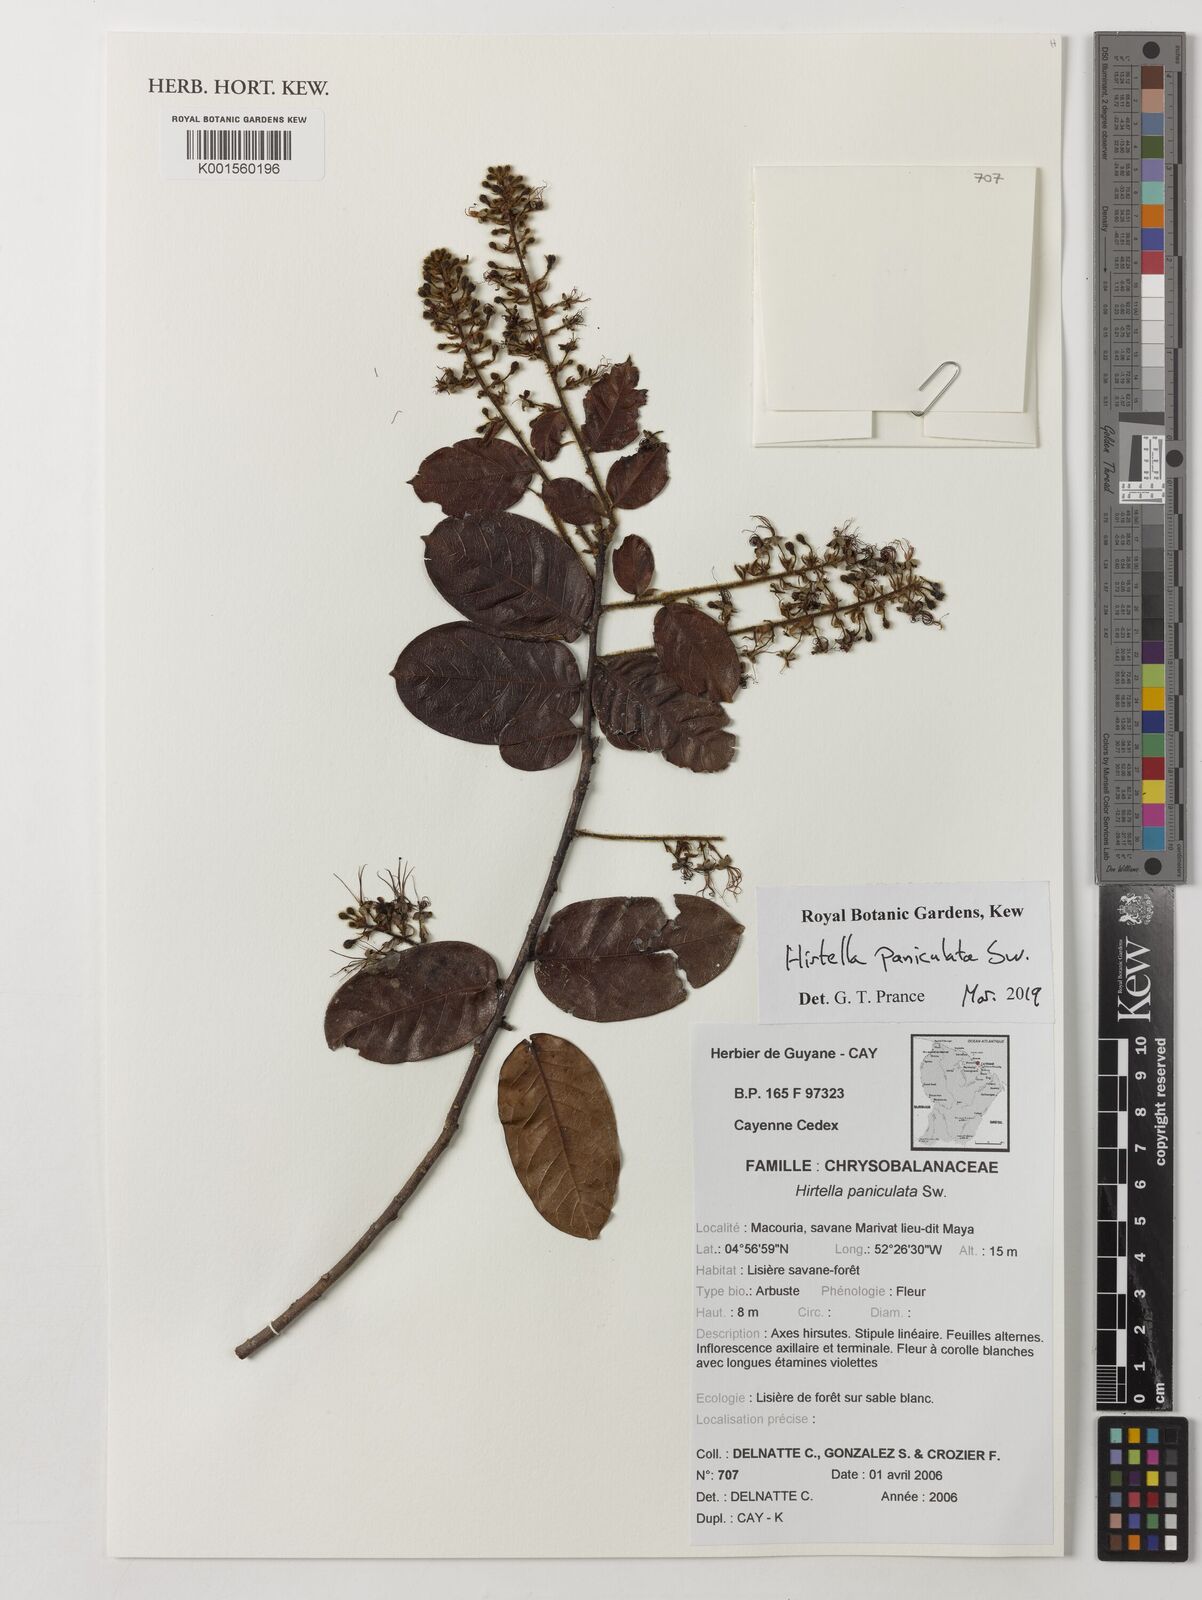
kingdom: Plantae
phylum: Tracheophyta
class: Magnoliopsida
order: Malpighiales
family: Chrysobalanaceae
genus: Hirtella
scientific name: Hirtella paniculata
